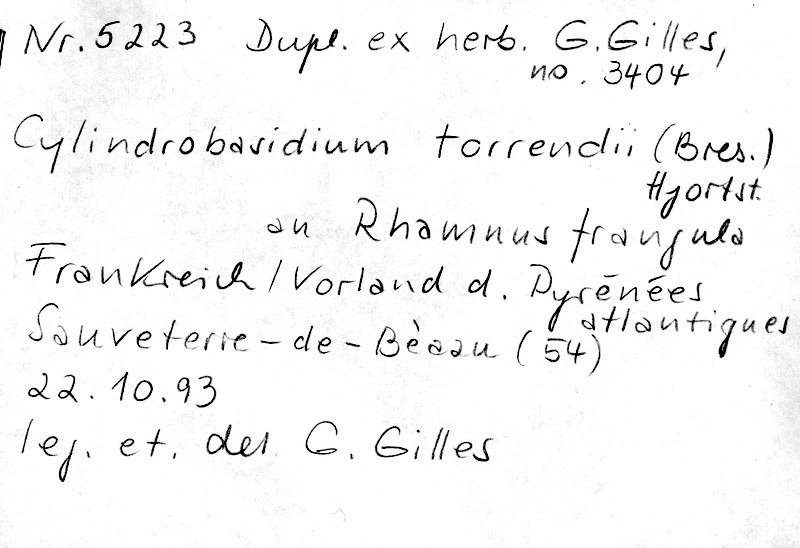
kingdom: Fungi
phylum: Basidiomycota
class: Agaricomycetes
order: Agaricales
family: Physalacriaceae
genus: Cylindrobasidium
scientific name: Cylindrobasidium torrendii
